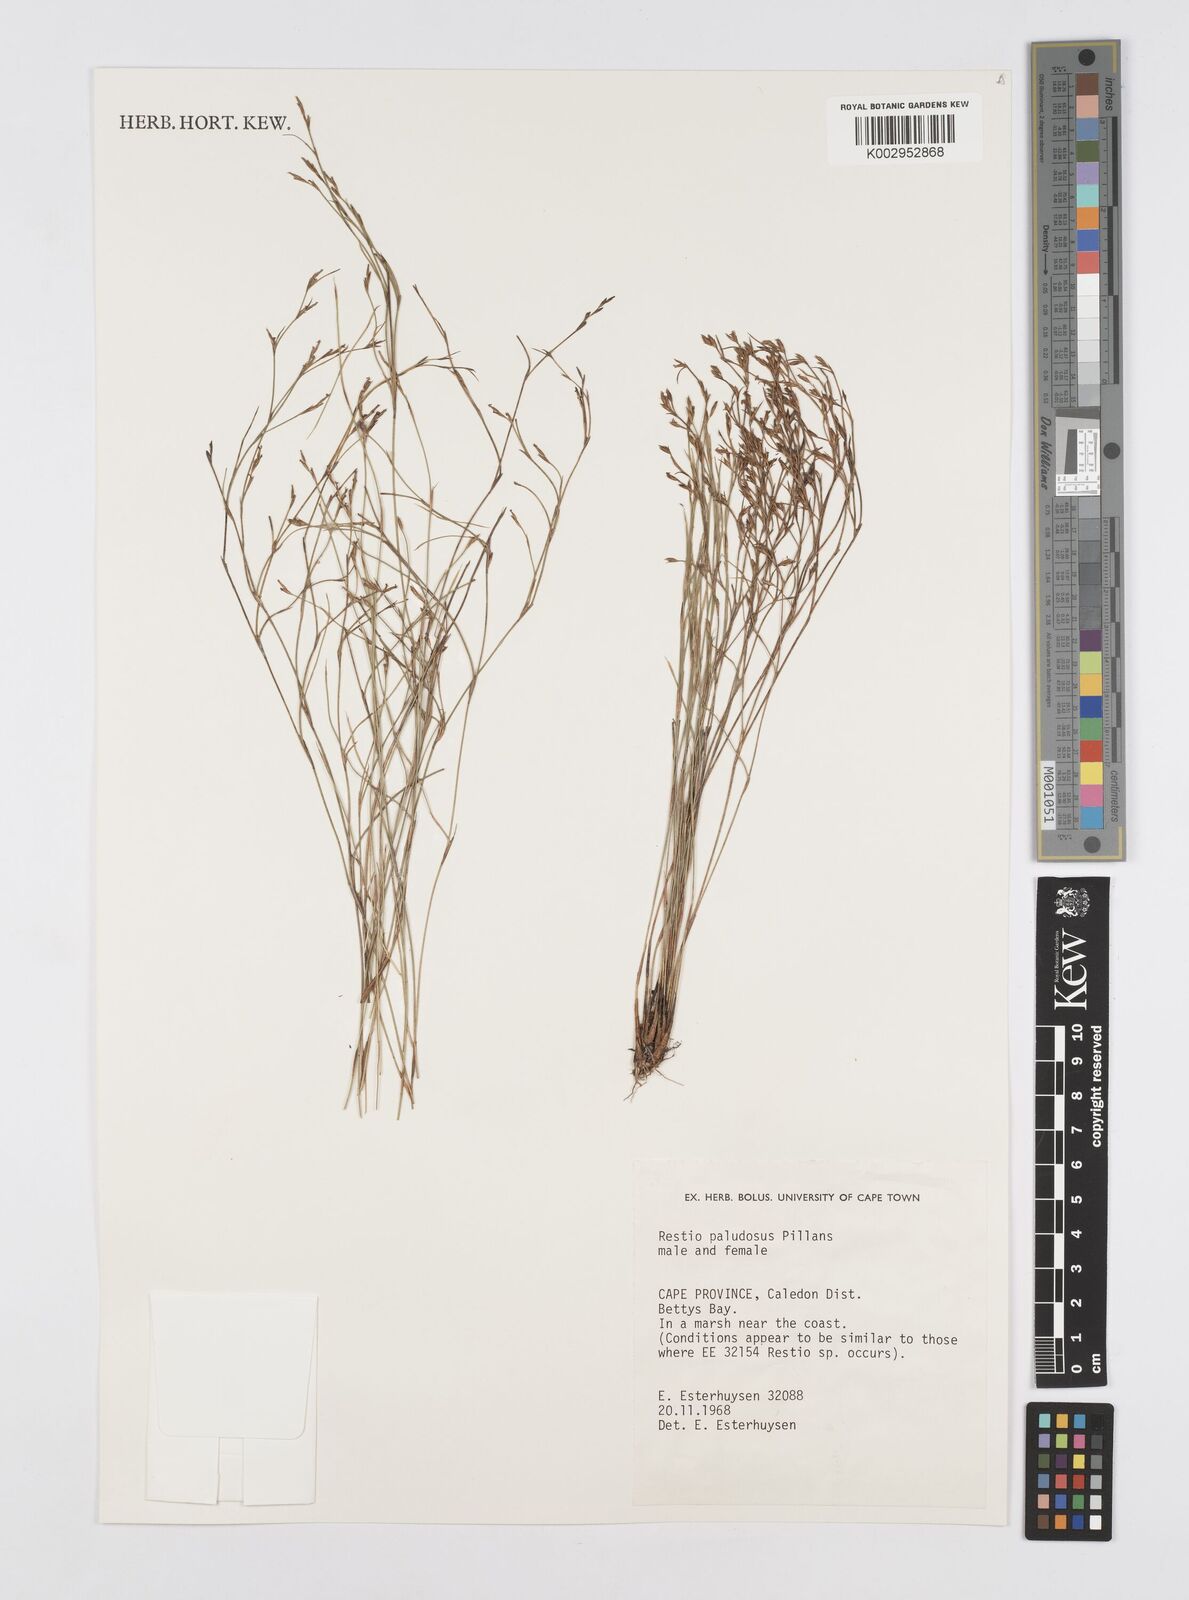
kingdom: Plantae
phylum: Tracheophyta
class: Liliopsida
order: Poales
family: Restionaceae
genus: Restio
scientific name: Restio paludosus
